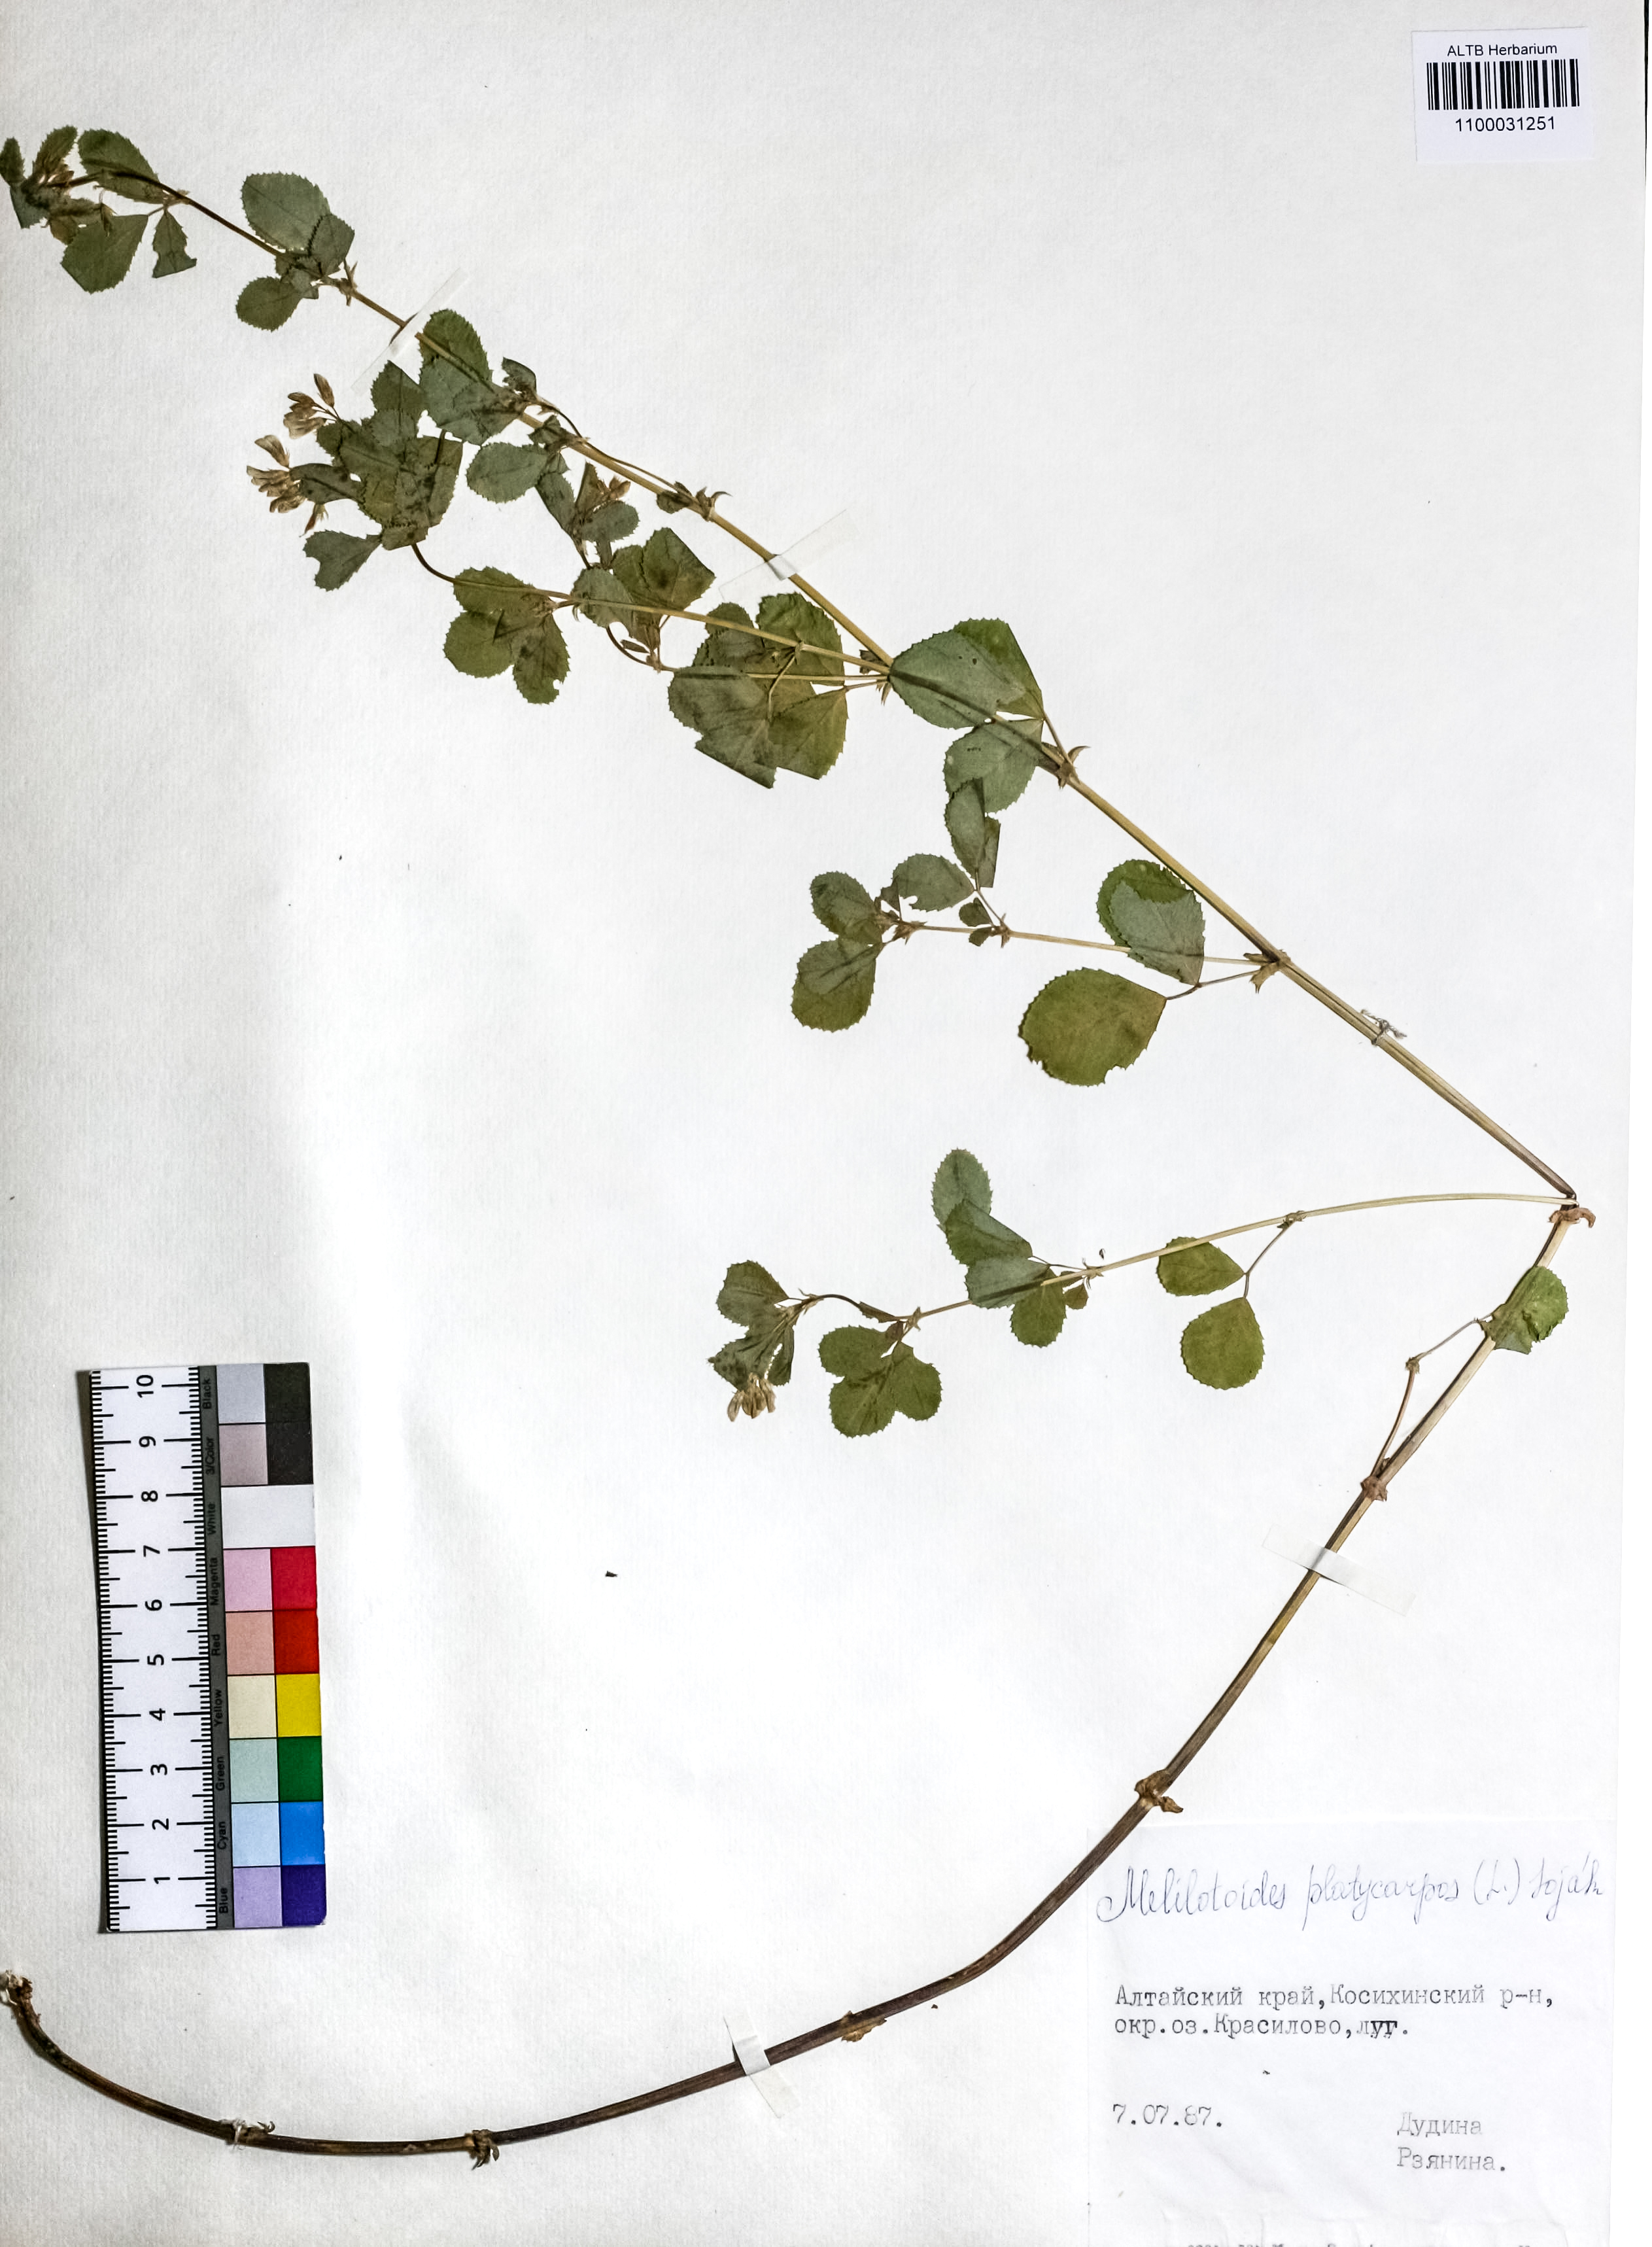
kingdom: Plantae
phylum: Tracheophyta
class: Magnoliopsida
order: Fabales
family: Fabaceae
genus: Medicago
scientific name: Medicago platycarpos
